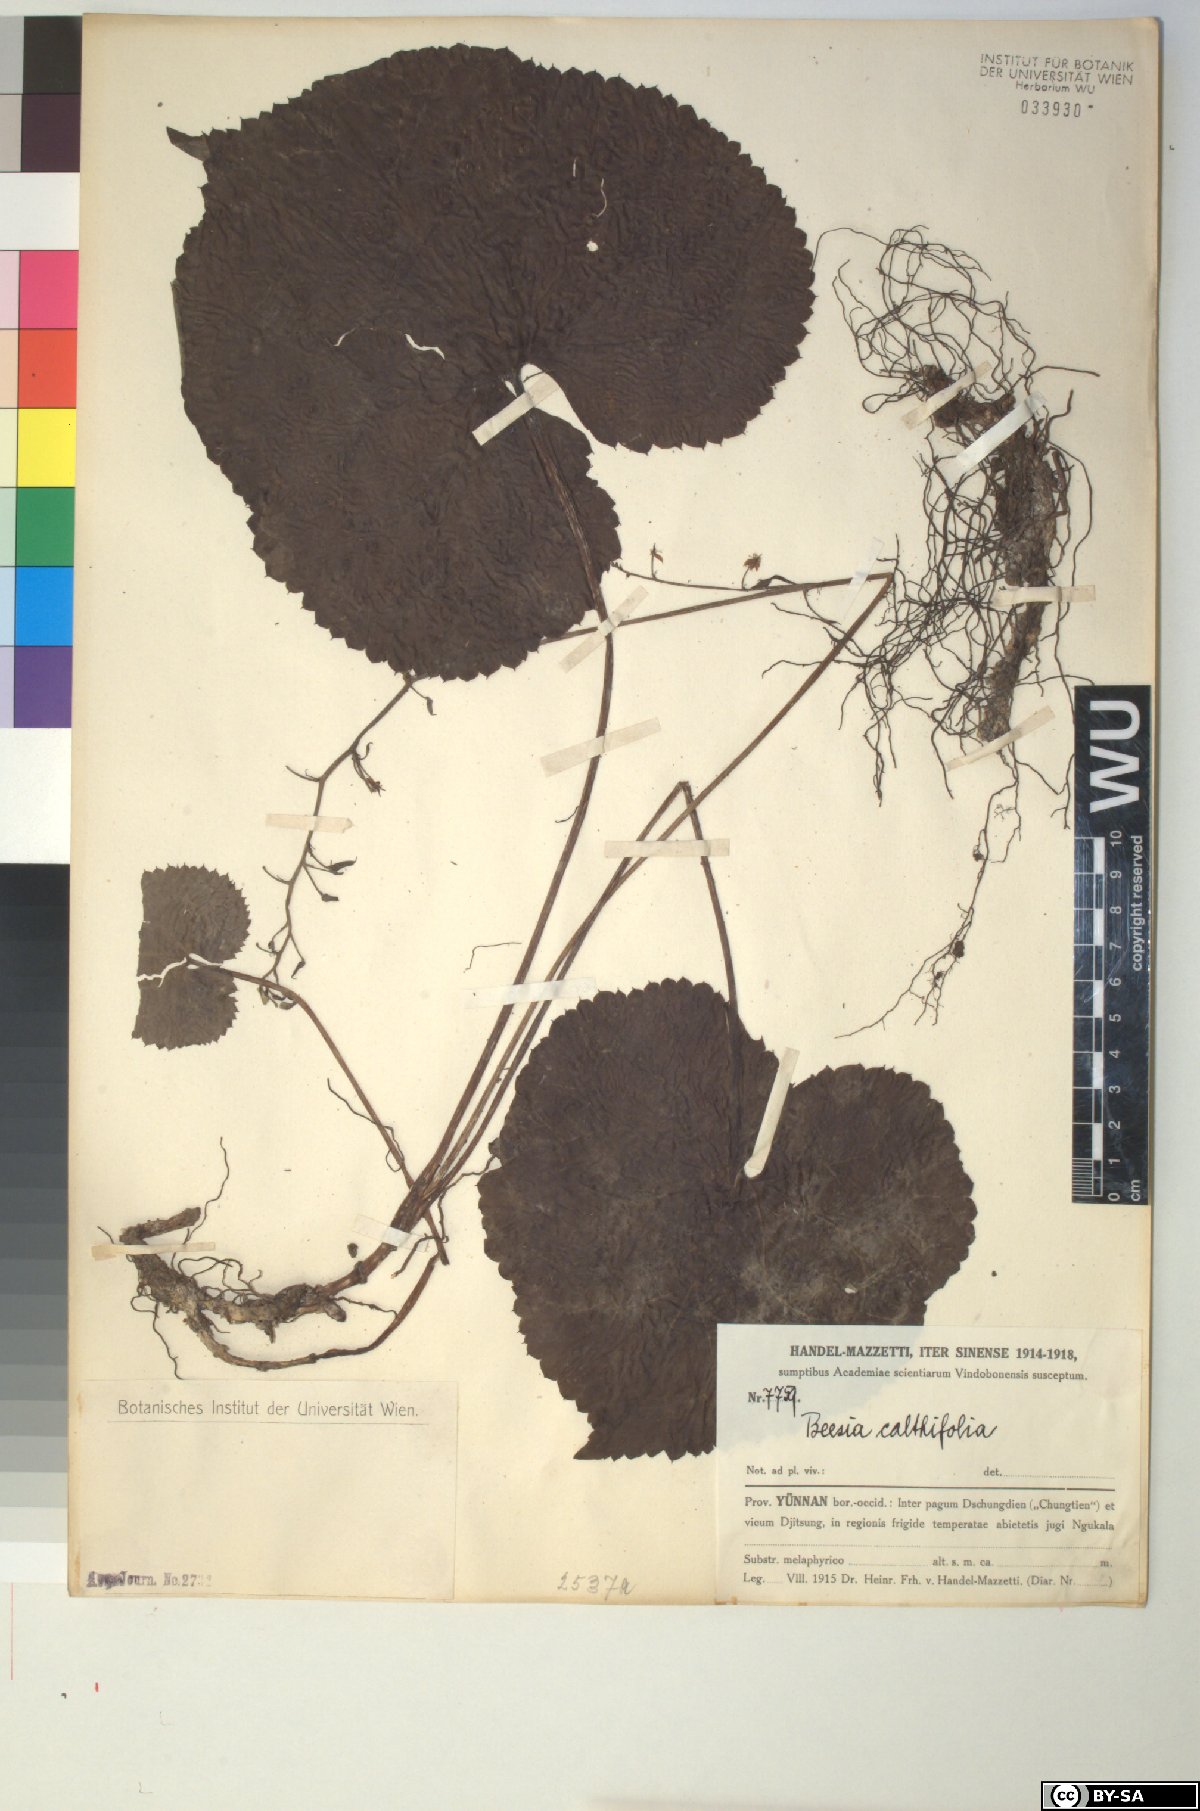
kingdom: Plantae
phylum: Tracheophyta
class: Magnoliopsida
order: Ranunculales
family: Ranunculaceae
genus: Beesia
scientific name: Beesia calthifolia
